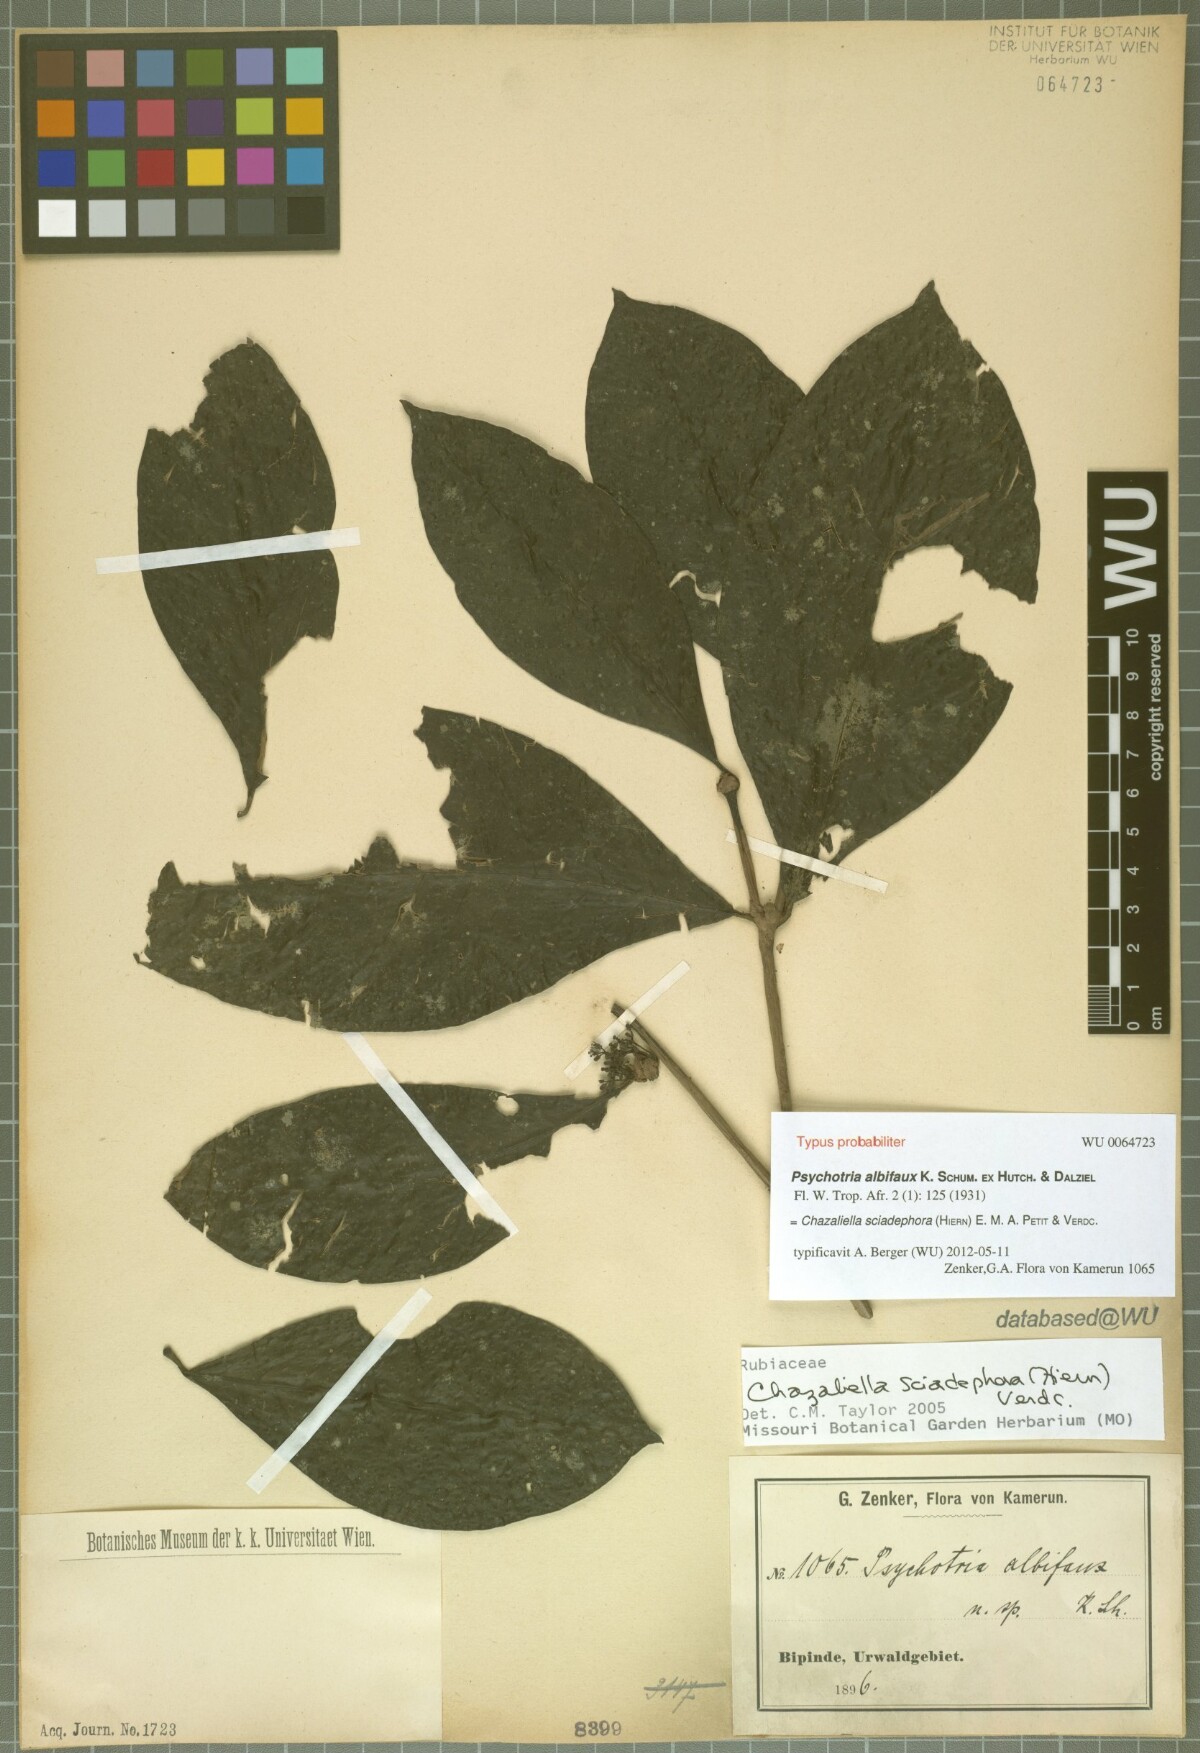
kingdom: Plantae
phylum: Tracheophyta
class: Magnoliopsida
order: Gentianales
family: Rubiaceae
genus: Eumachia
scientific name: Eumachia sciadephora
